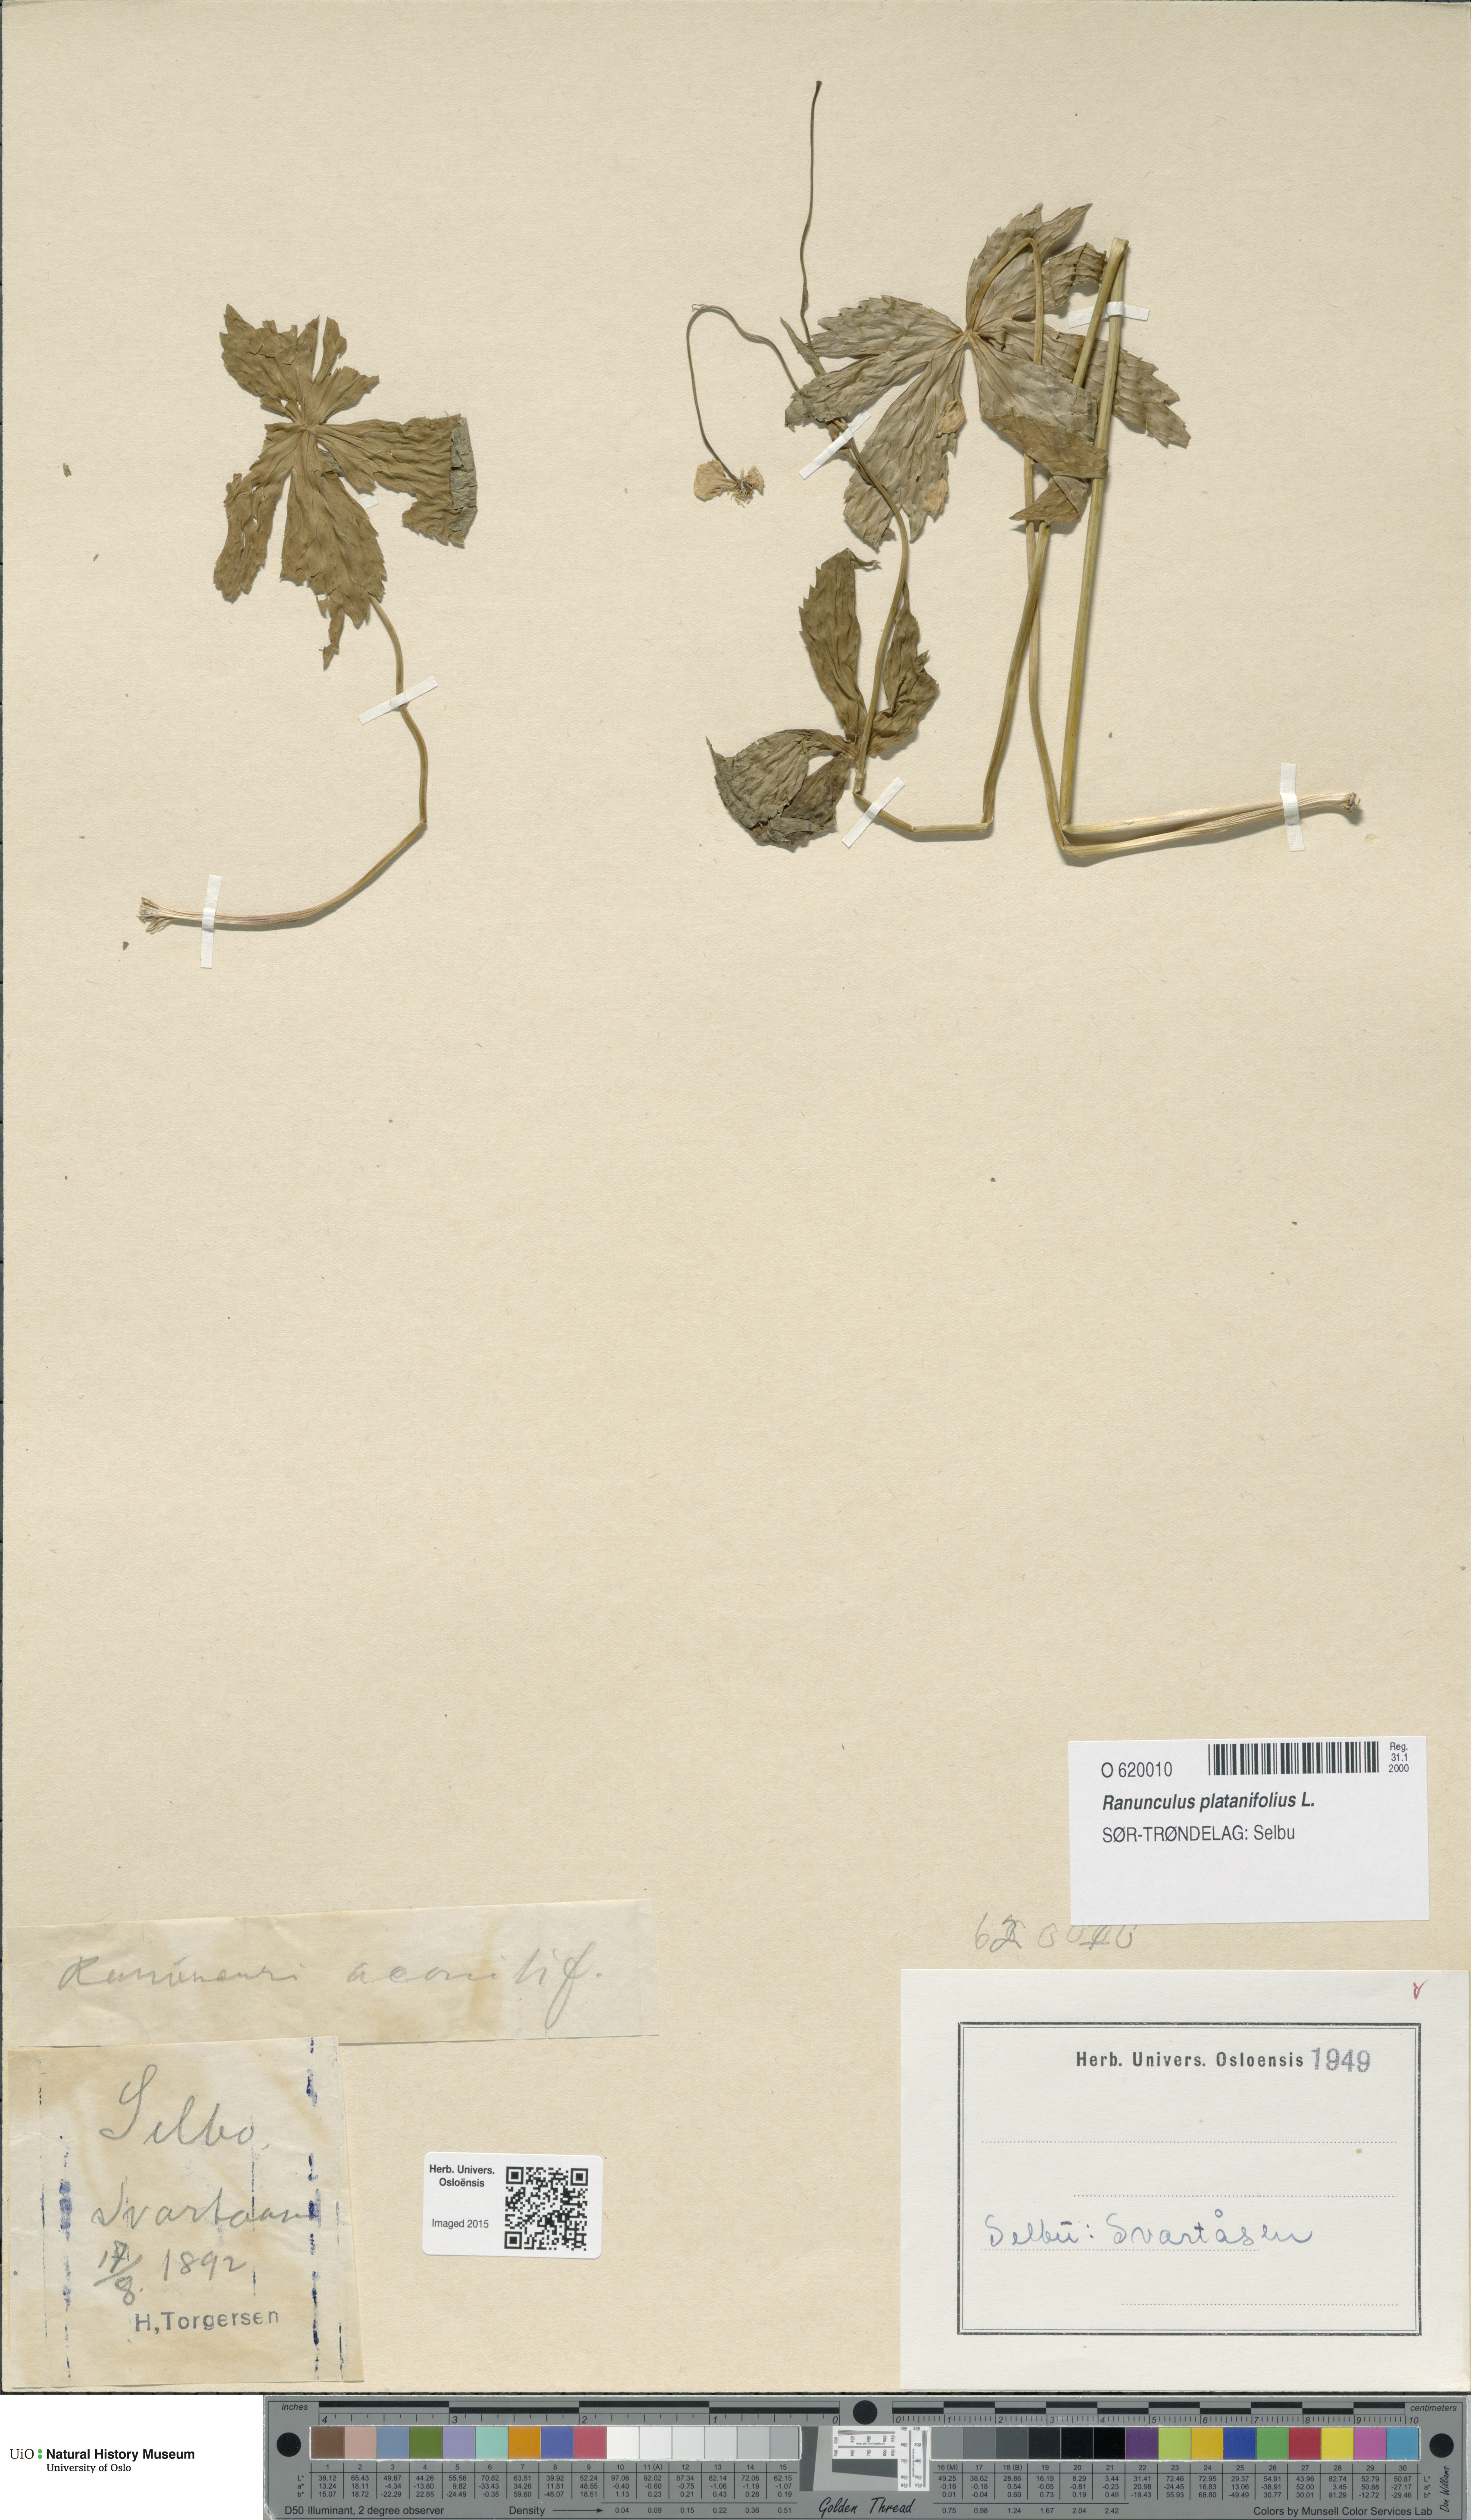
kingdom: Plantae
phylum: Tracheophyta
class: Magnoliopsida
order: Ranunculales
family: Ranunculaceae
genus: Ranunculus
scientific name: Ranunculus platanifolius
